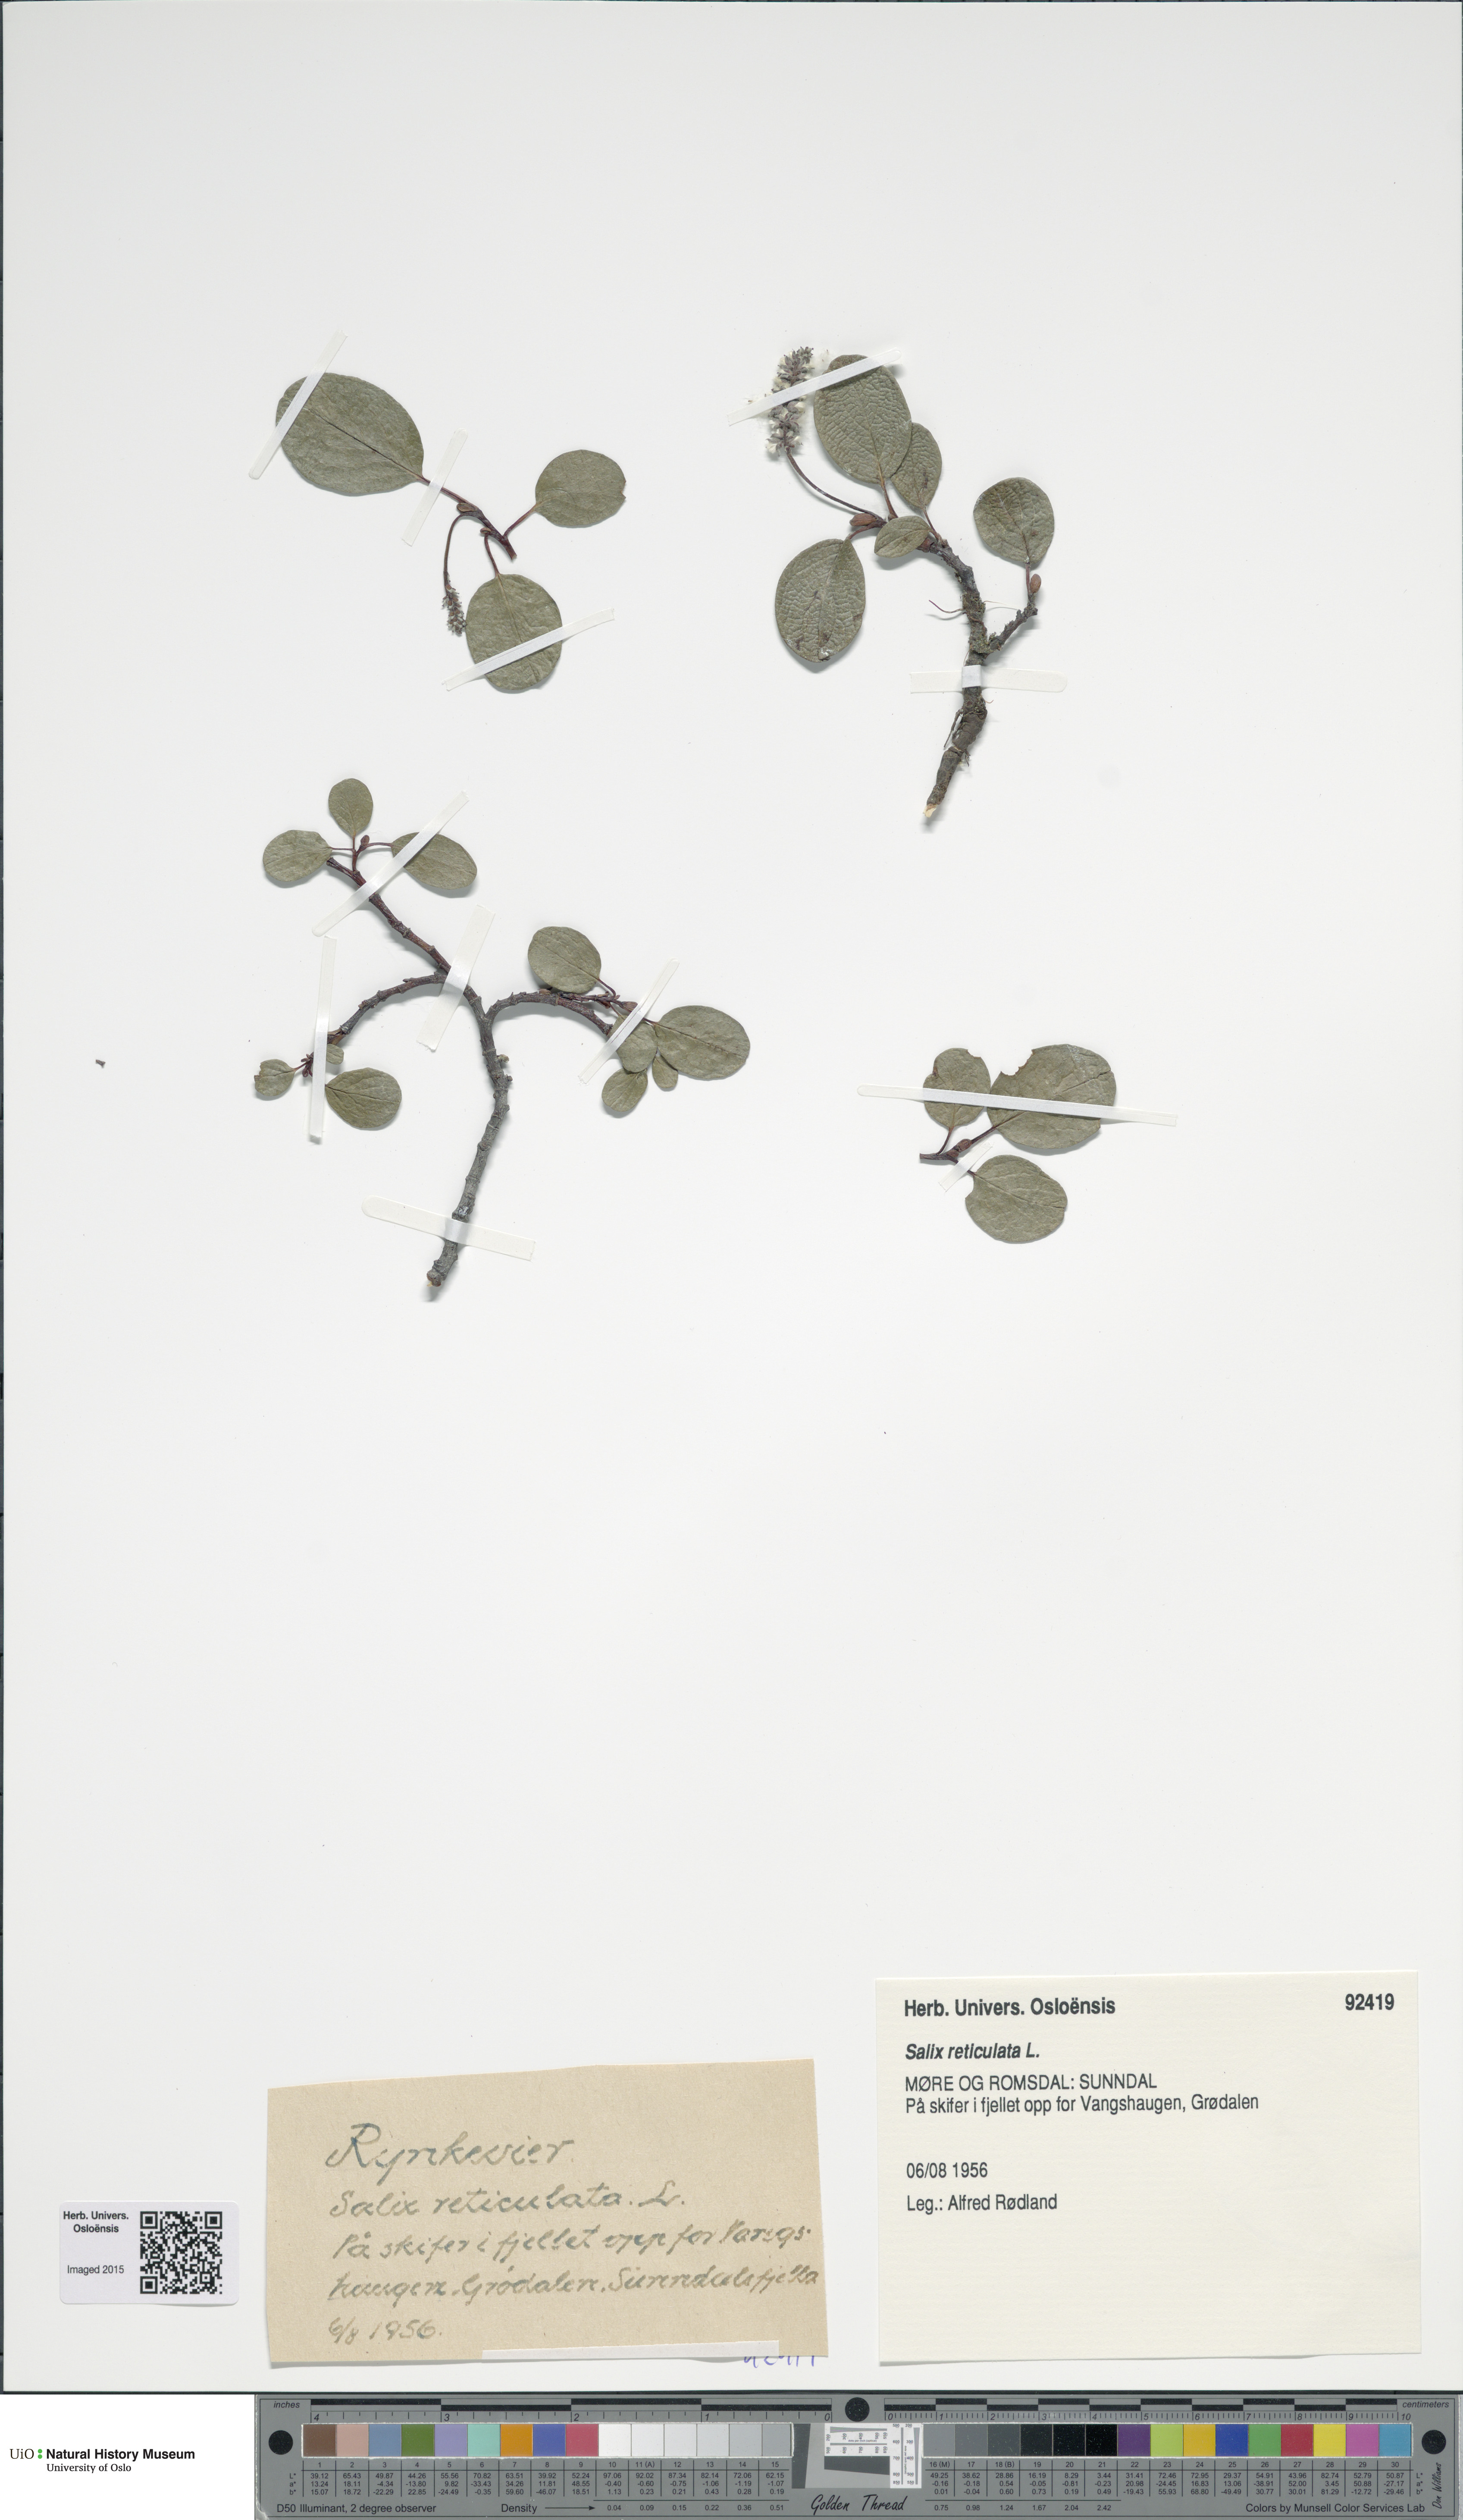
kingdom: Plantae
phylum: Tracheophyta
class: Magnoliopsida
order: Malpighiales
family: Salicaceae
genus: Salix
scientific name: Salix reticulata
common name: Net-leaved willow
